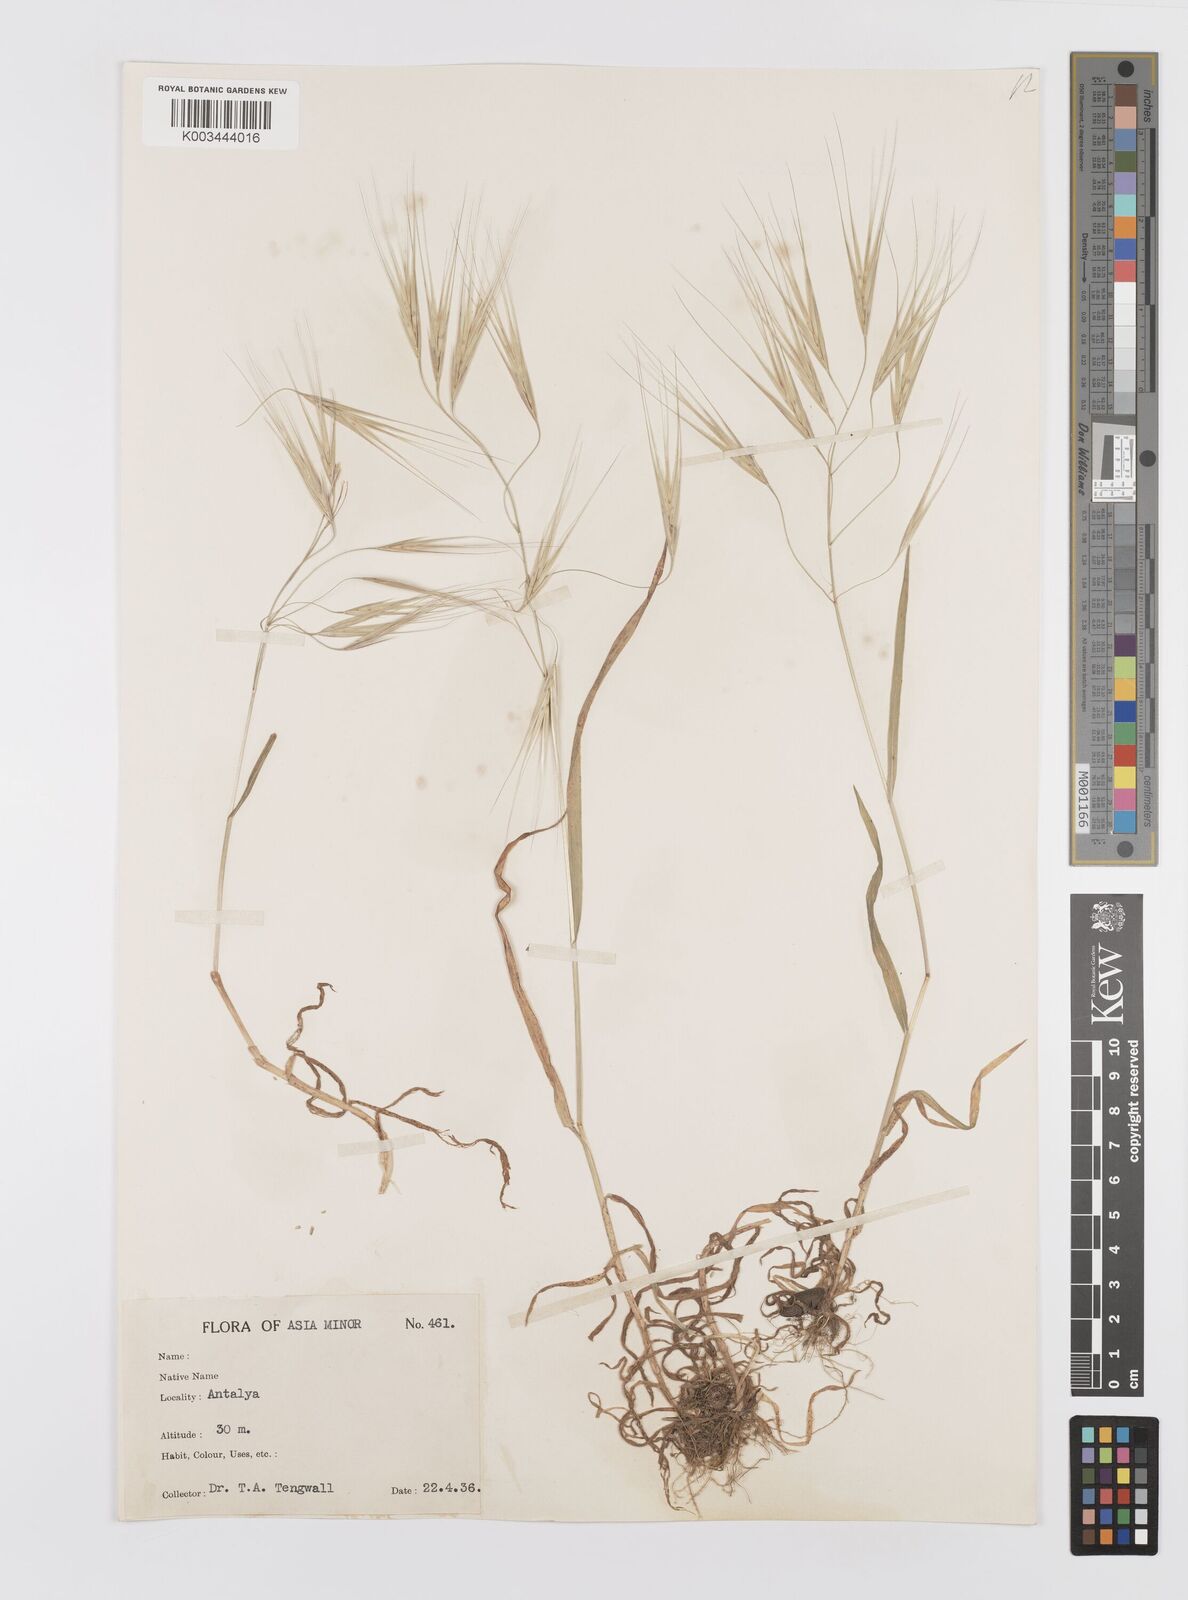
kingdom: Plantae
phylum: Tracheophyta
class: Liliopsida
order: Poales
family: Poaceae
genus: Bromus
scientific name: Bromus sterilis
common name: Poverty brome
